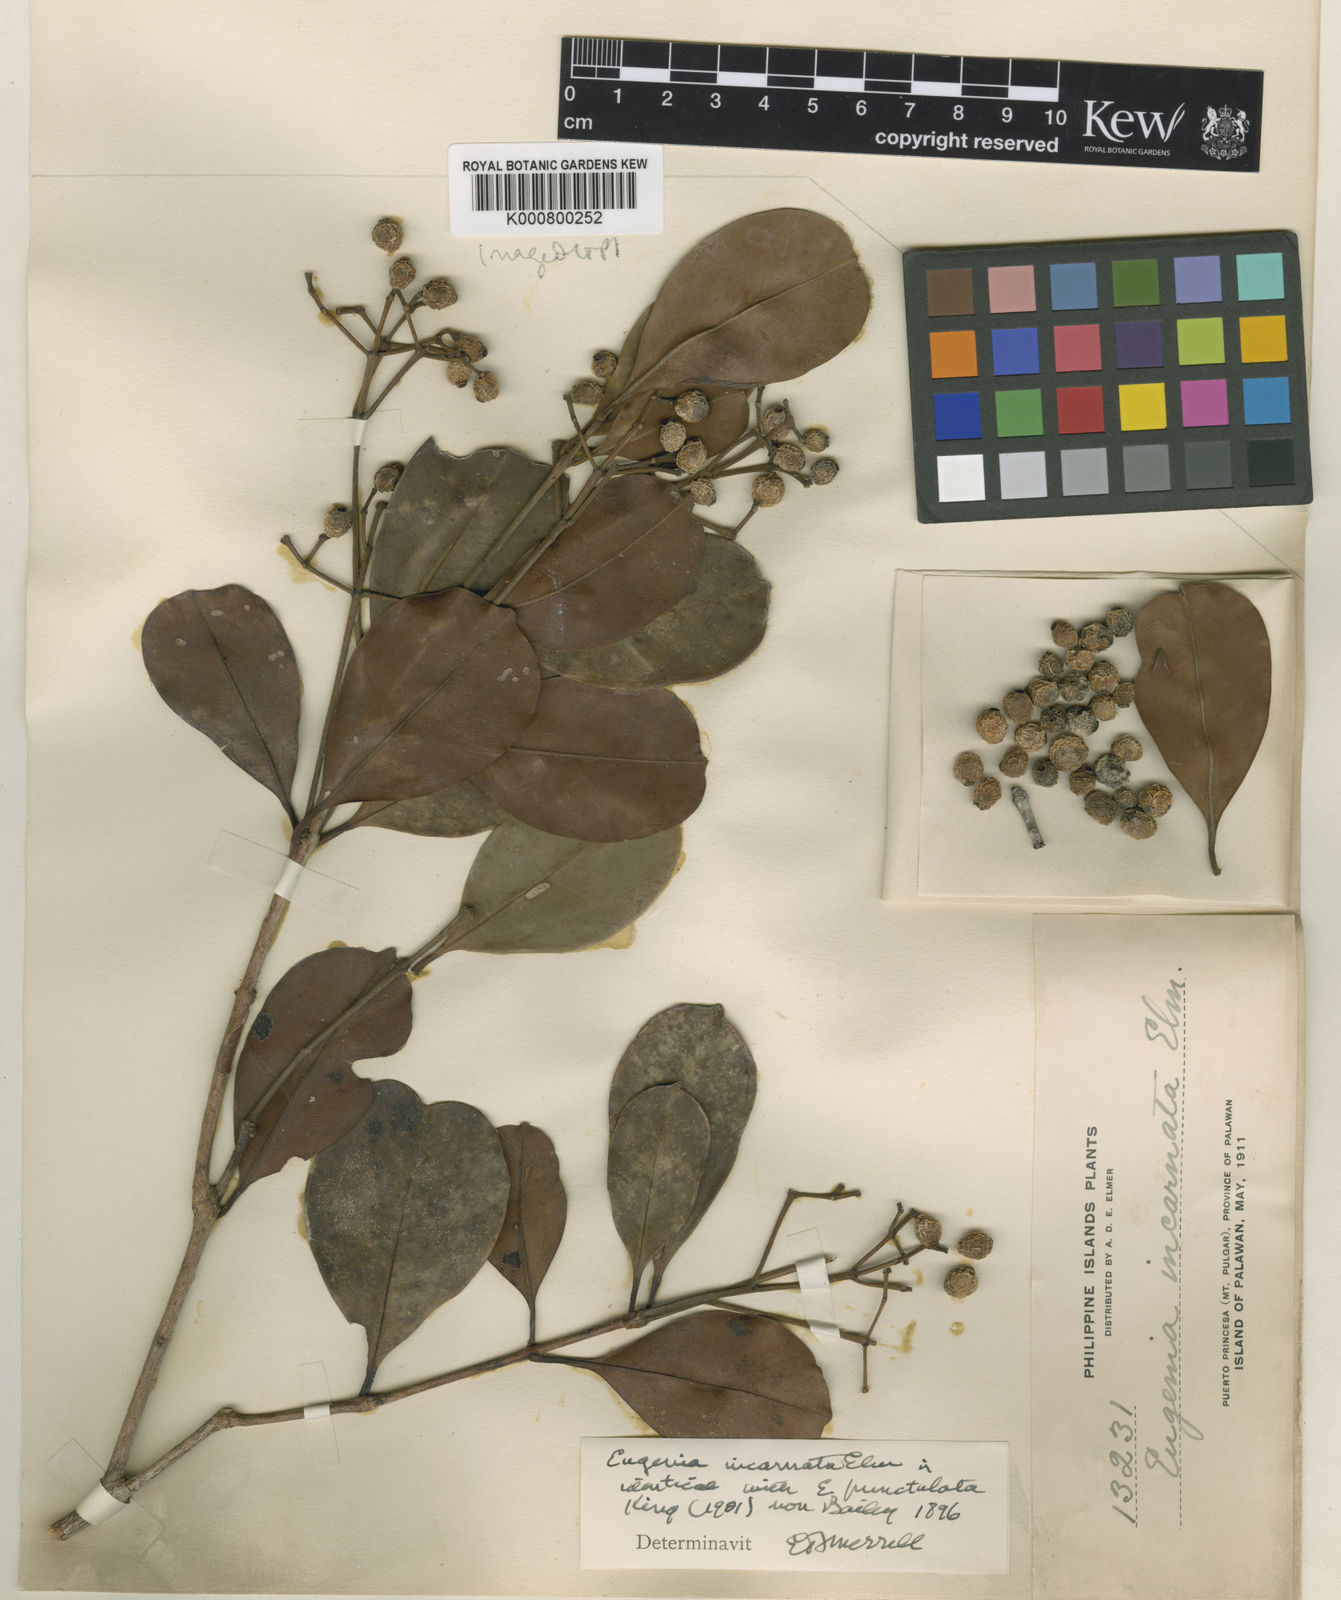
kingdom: Plantae
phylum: Tracheophyta
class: Magnoliopsida
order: Myrtales
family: Myrtaceae
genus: Syzygium
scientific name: Syzygium incarnatum
